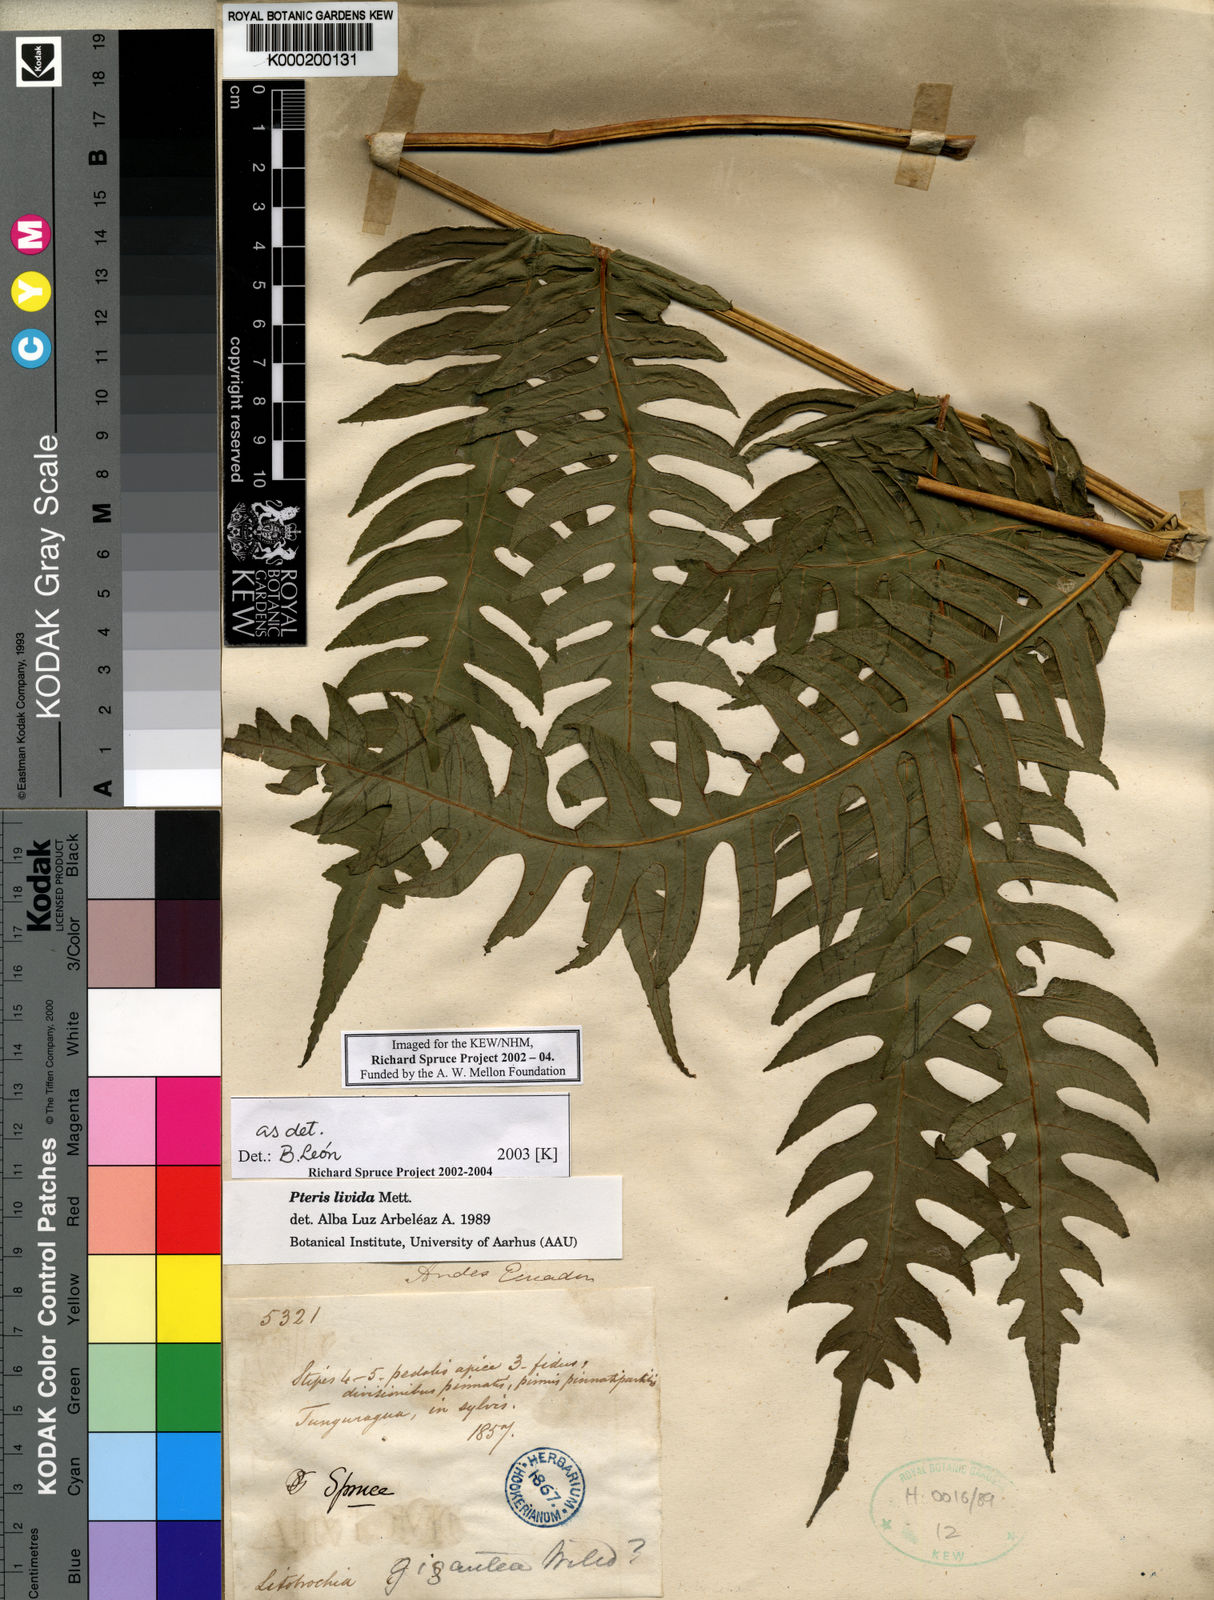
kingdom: Plantae
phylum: Tracheophyta
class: Polypodiopsida
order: Polypodiales
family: Pteridaceae
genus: Pteris
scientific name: Pteris livida
